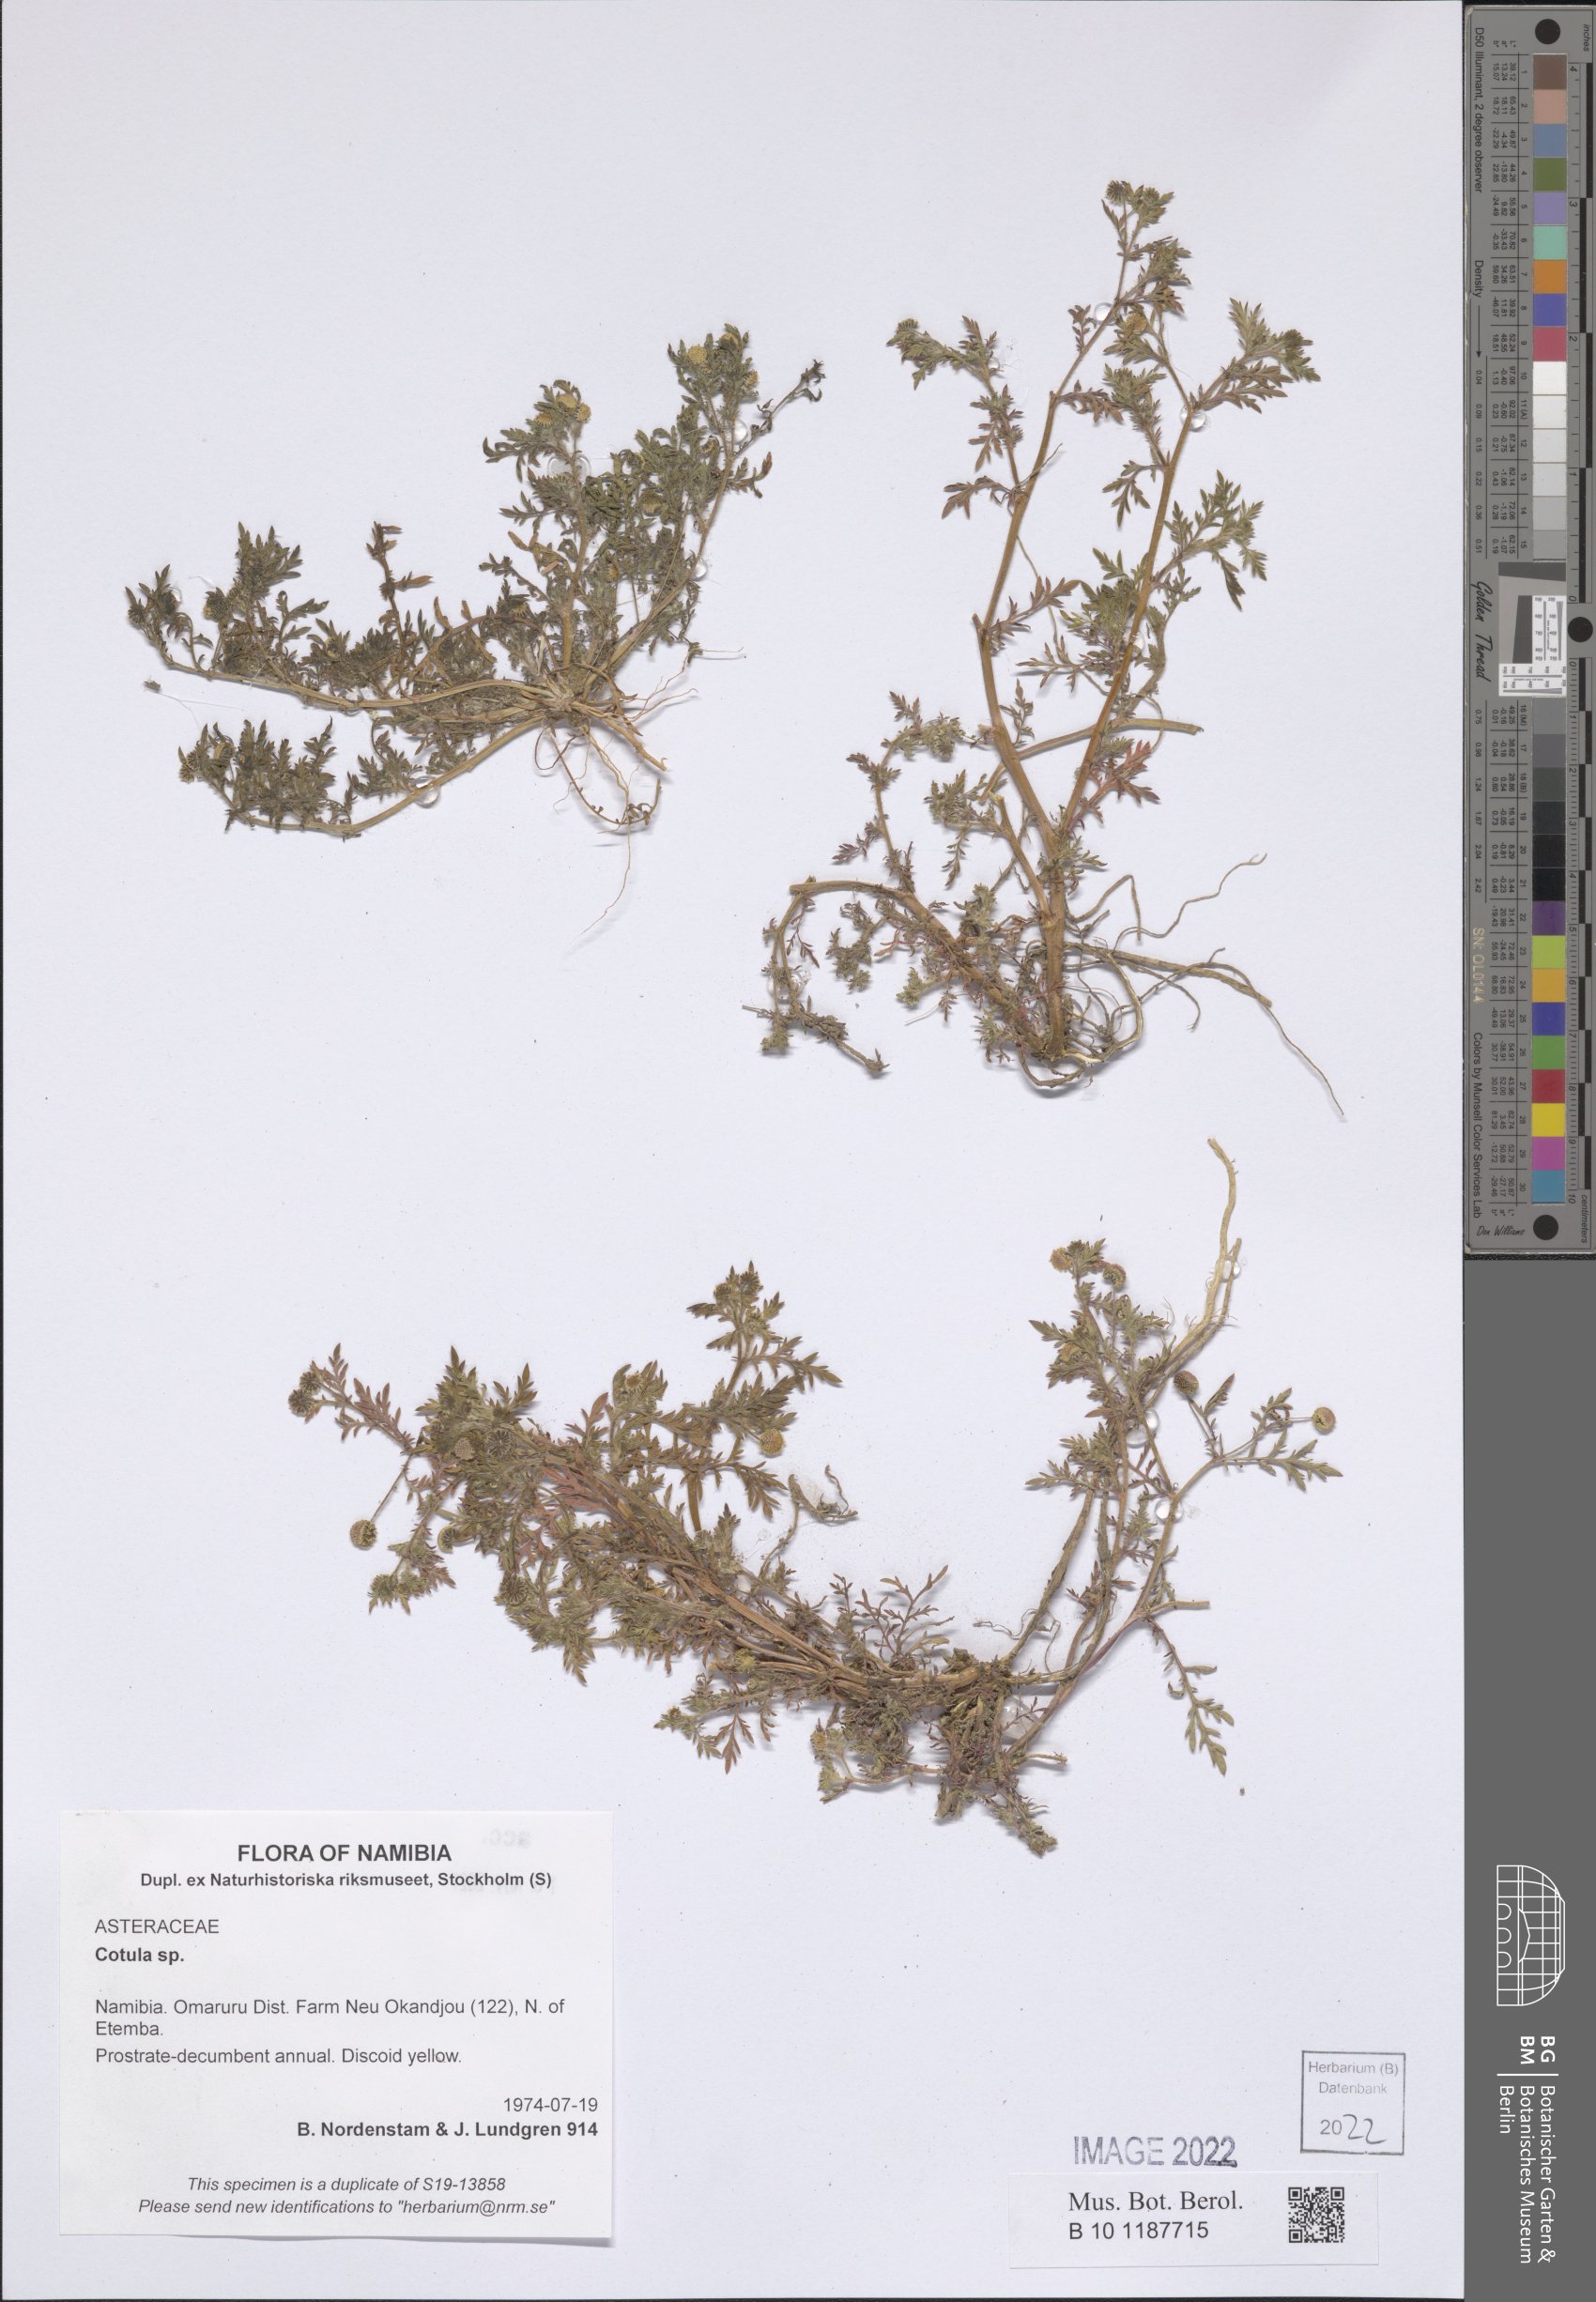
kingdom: Plantae
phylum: Tracheophyta
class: Magnoliopsida
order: Asterales
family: Asteraceae
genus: Cotula
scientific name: Cotula
